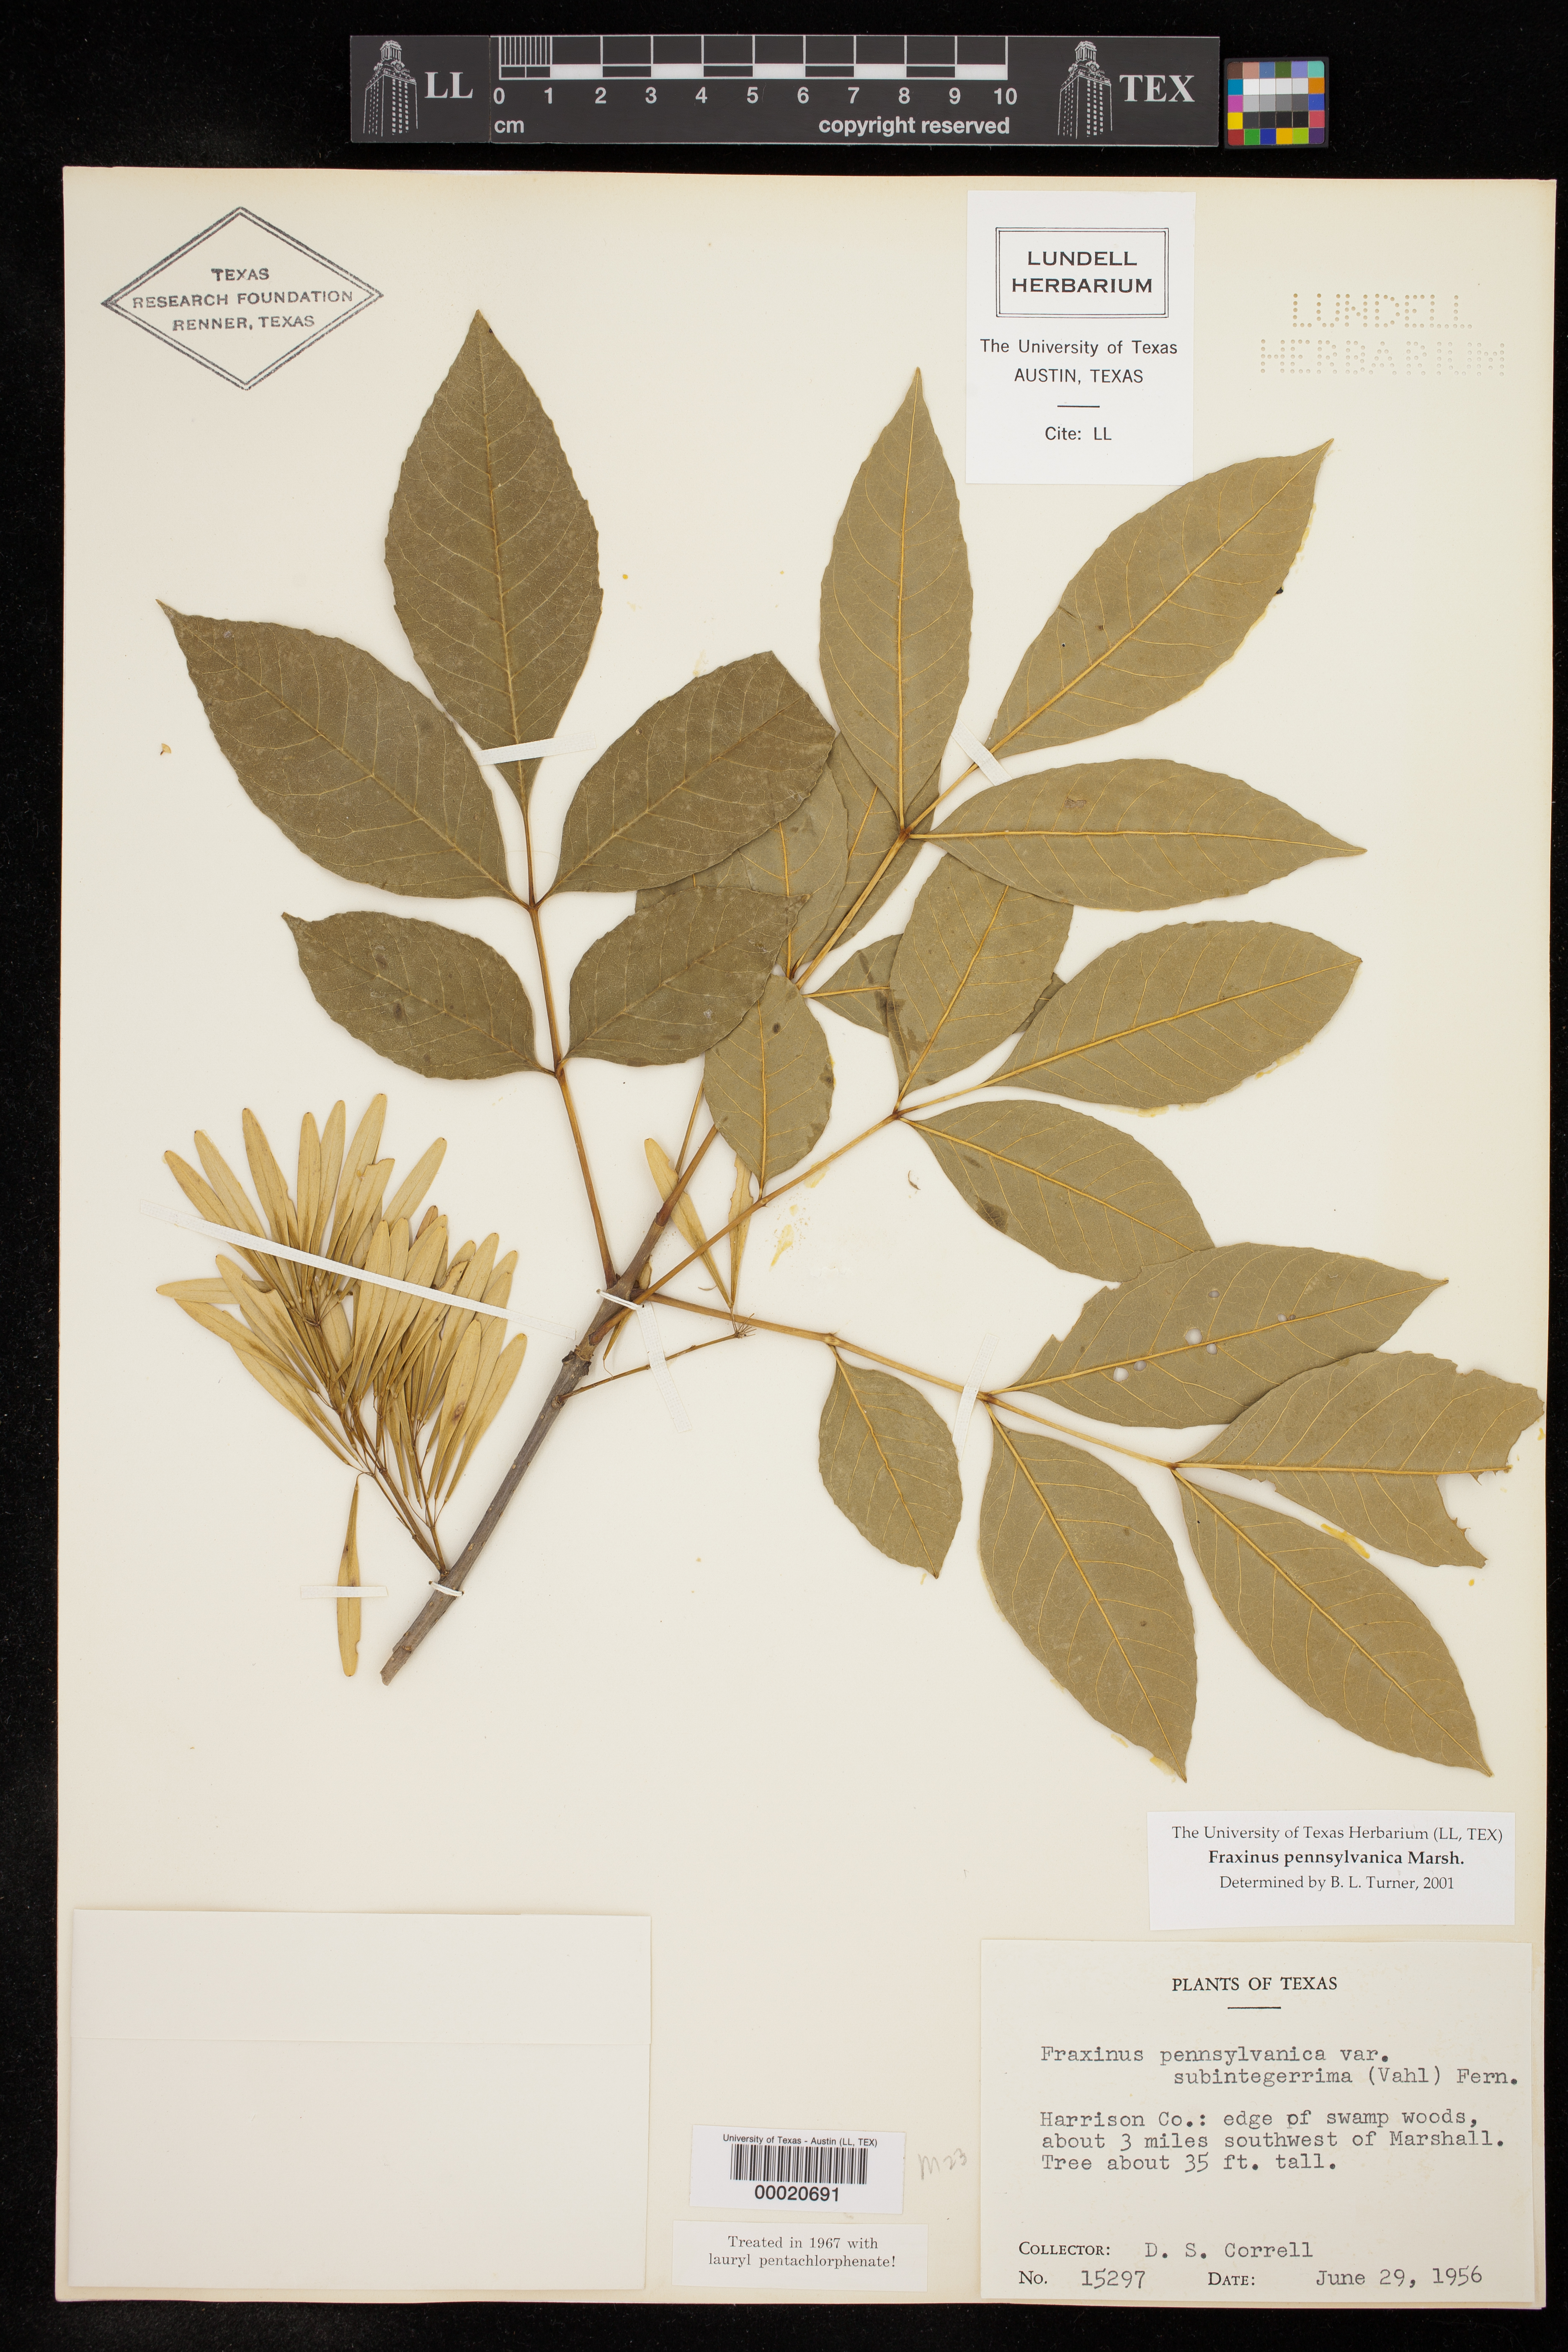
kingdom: Plantae
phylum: Tracheophyta
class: Magnoliopsida
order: Lamiales
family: Oleaceae
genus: Fraxinus
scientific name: Fraxinus pennsylvanica
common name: Green ash
